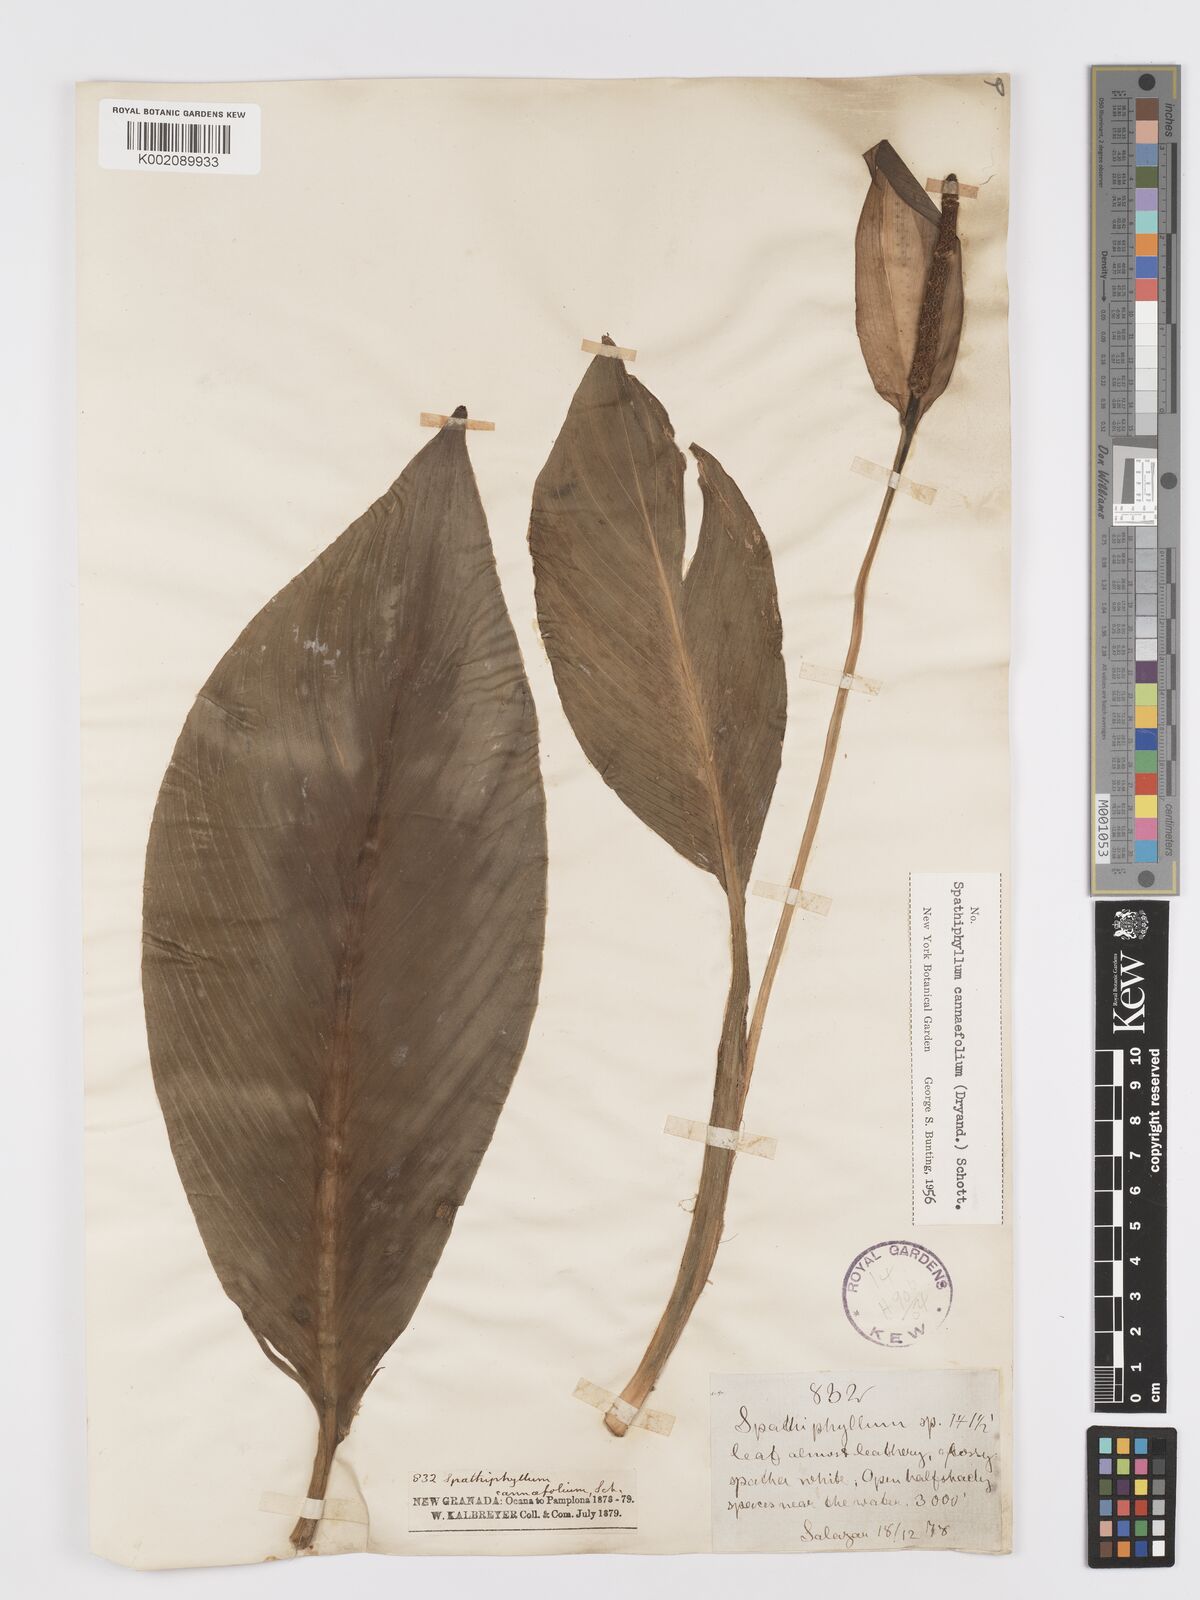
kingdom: Plantae
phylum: Tracheophyta
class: Liliopsida
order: Alismatales
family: Araceae
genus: Spathiphyllum
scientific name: Spathiphyllum cannifolium
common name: Spatheflower
